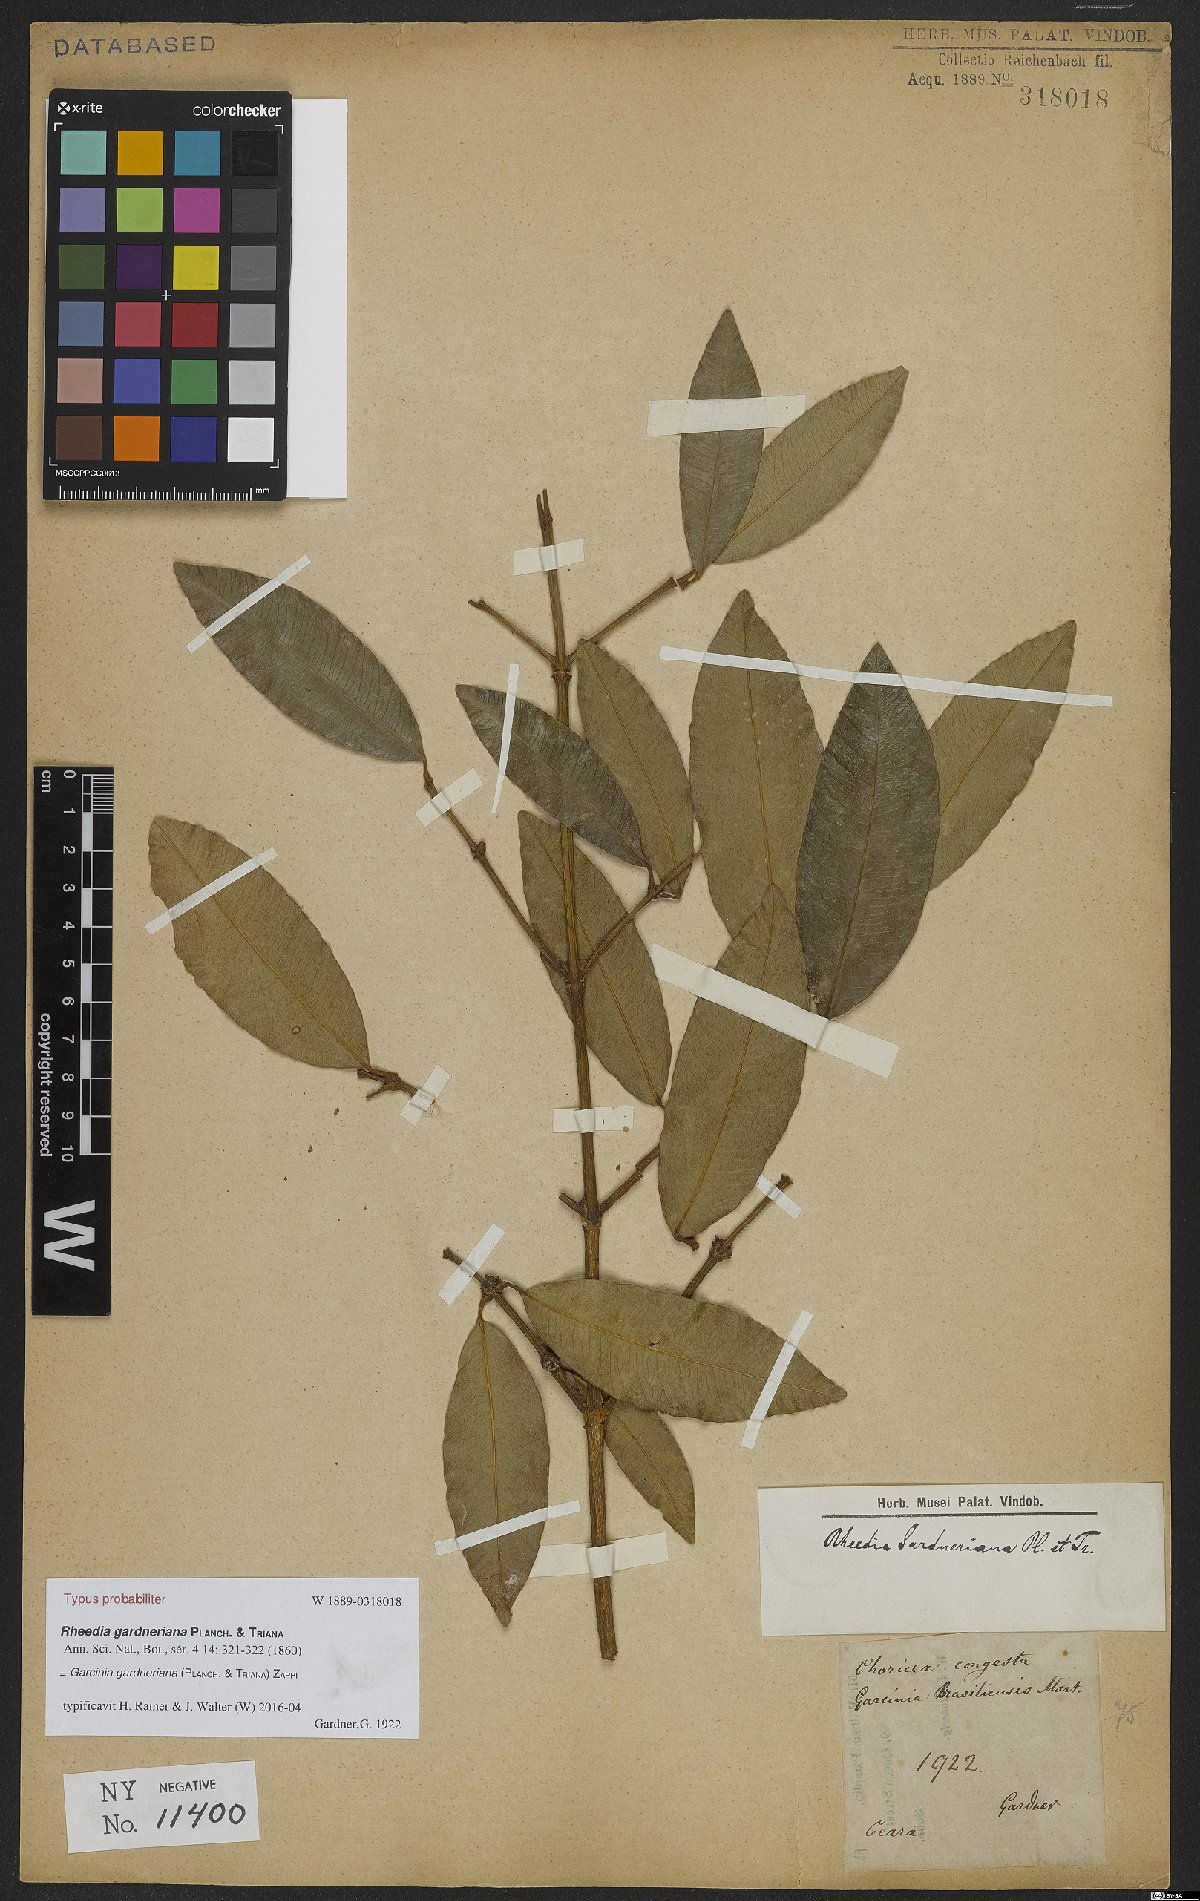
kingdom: Plantae
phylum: Tracheophyta
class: Magnoliopsida
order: Malpighiales
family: Clusiaceae
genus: Garcinia
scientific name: Garcinia gardneriana
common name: Achacha
